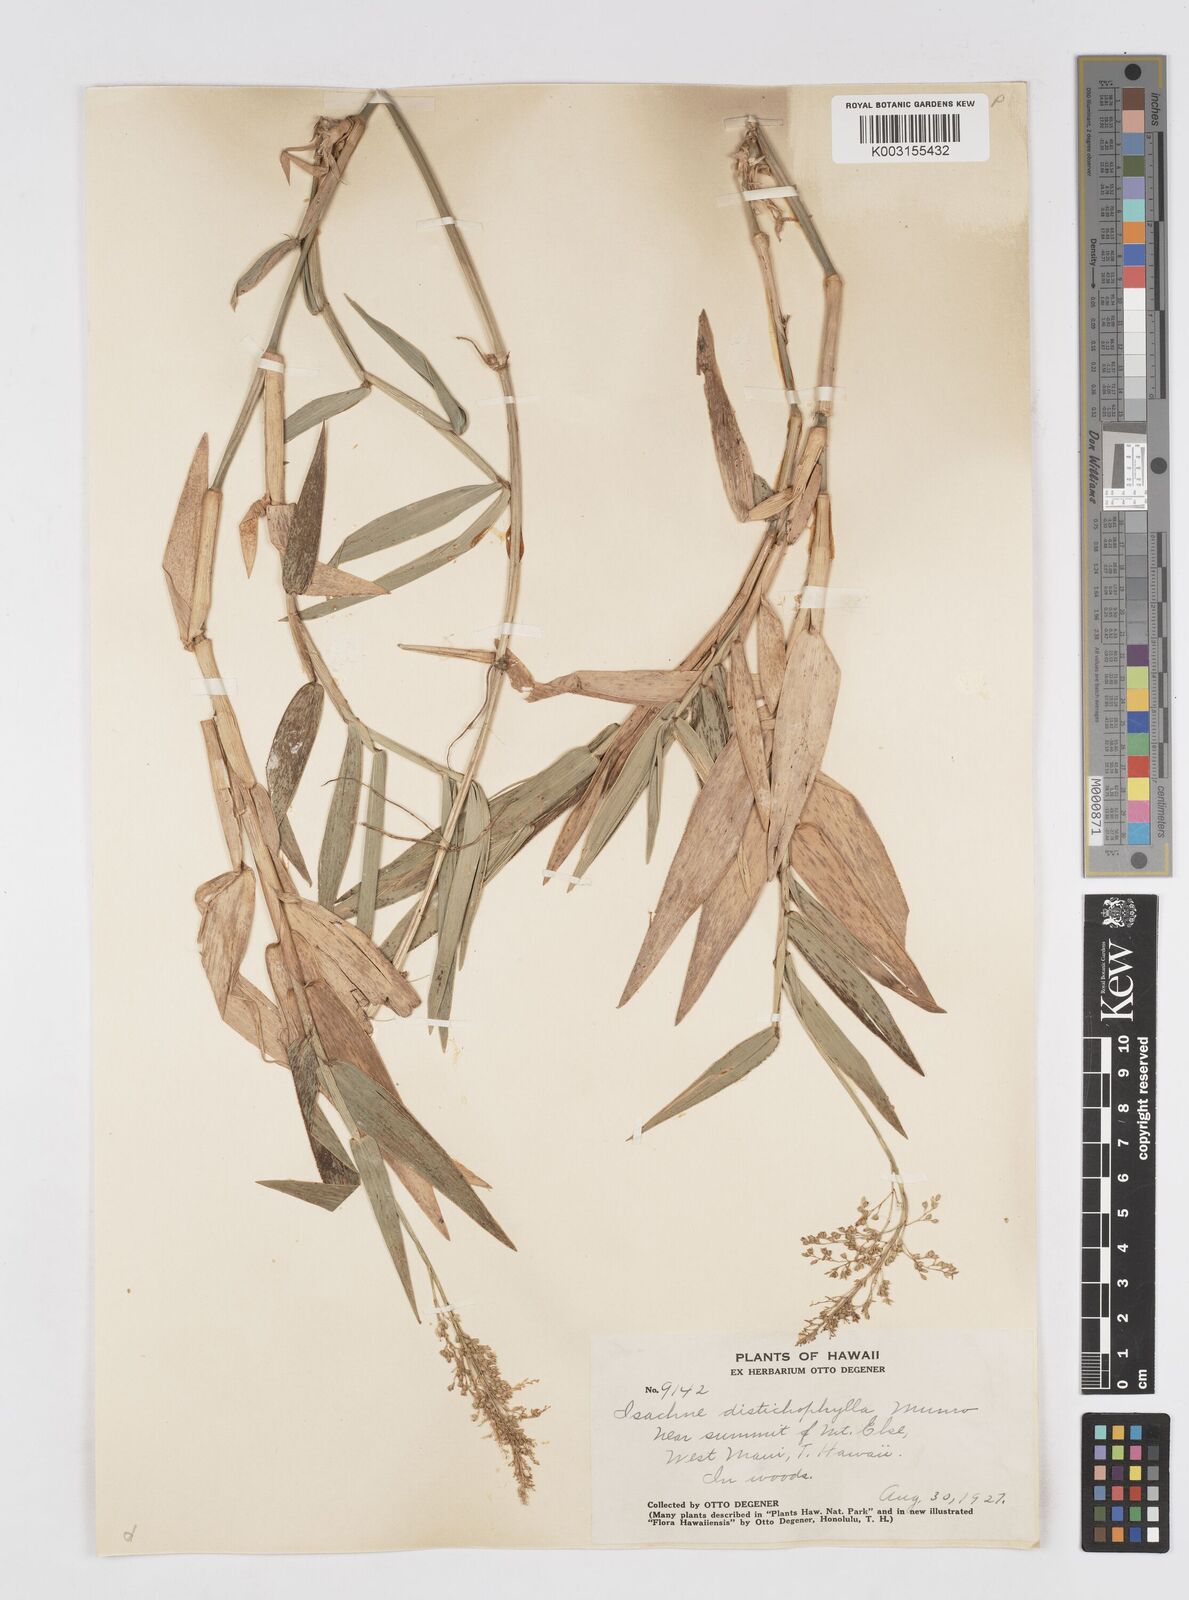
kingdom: Plantae
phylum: Tracheophyta
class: Liliopsida
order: Poales
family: Poaceae
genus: Isachne
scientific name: Isachne distichophylla
